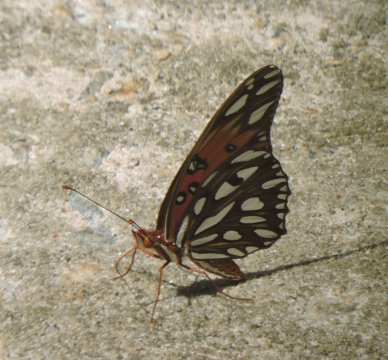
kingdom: Animalia
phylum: Arthropoda
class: Insecta
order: Lepidoptera
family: Nymphalidae
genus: Dione
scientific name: Dione vanillae
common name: Gulf Fritillary
